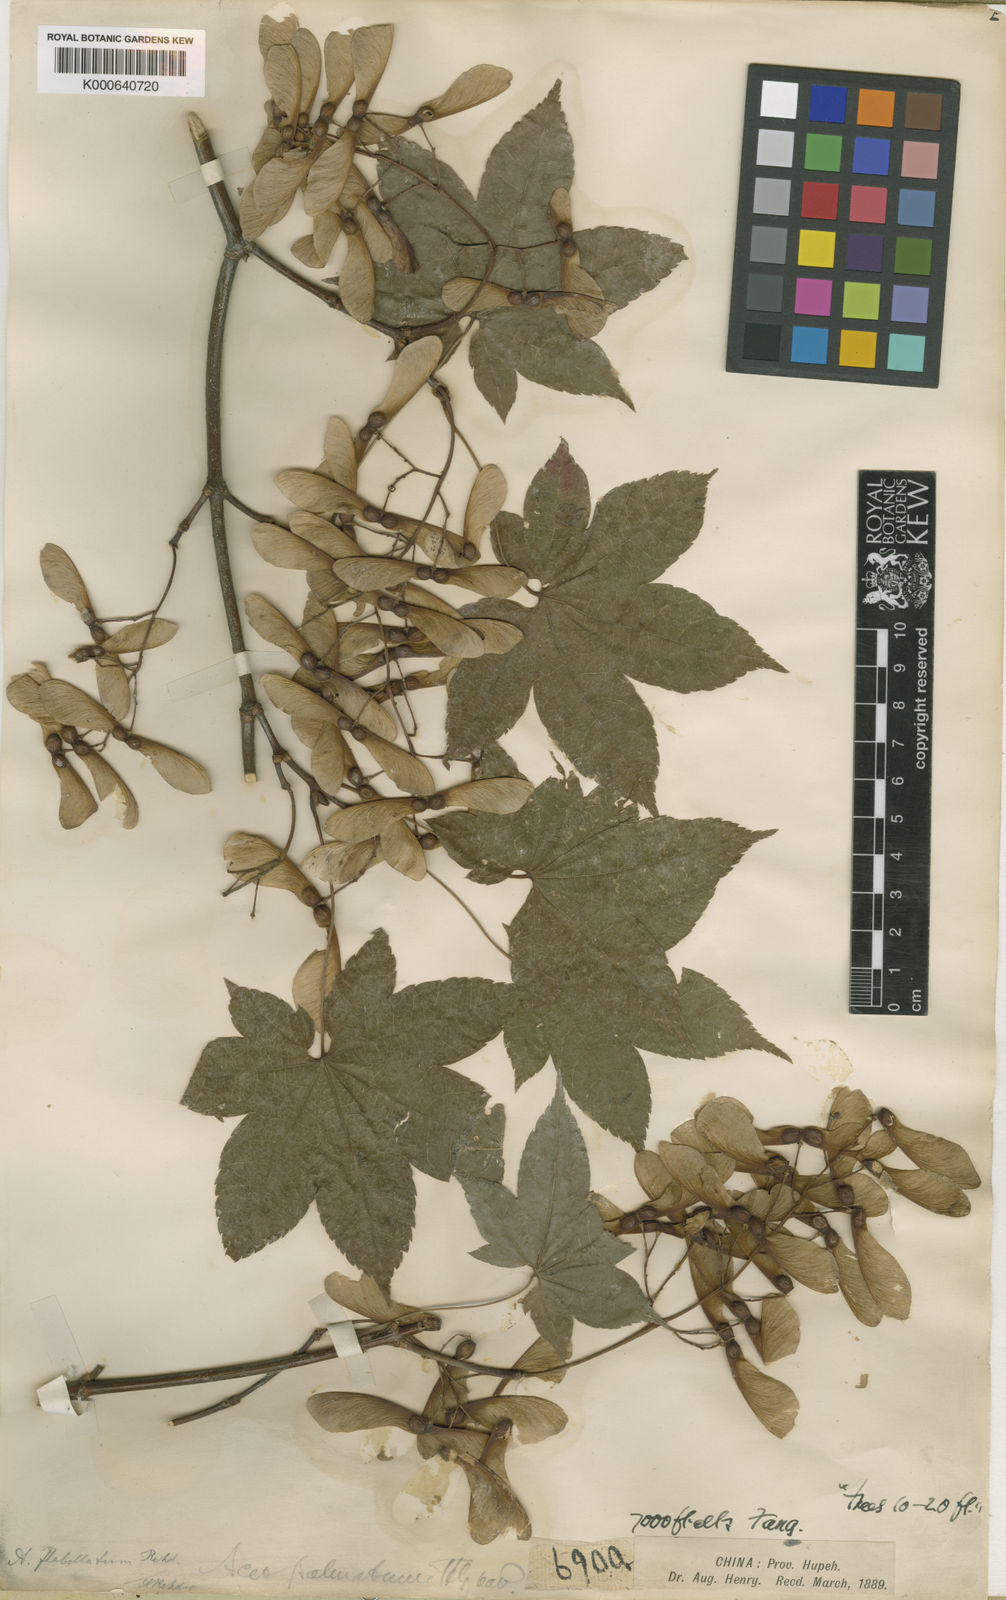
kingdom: Plantae
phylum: Tracheophyta
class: Magnoliopsida
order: Sapindales
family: Sapindaceae
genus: Acer
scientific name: Acer campbellii
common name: Campbell's maple
